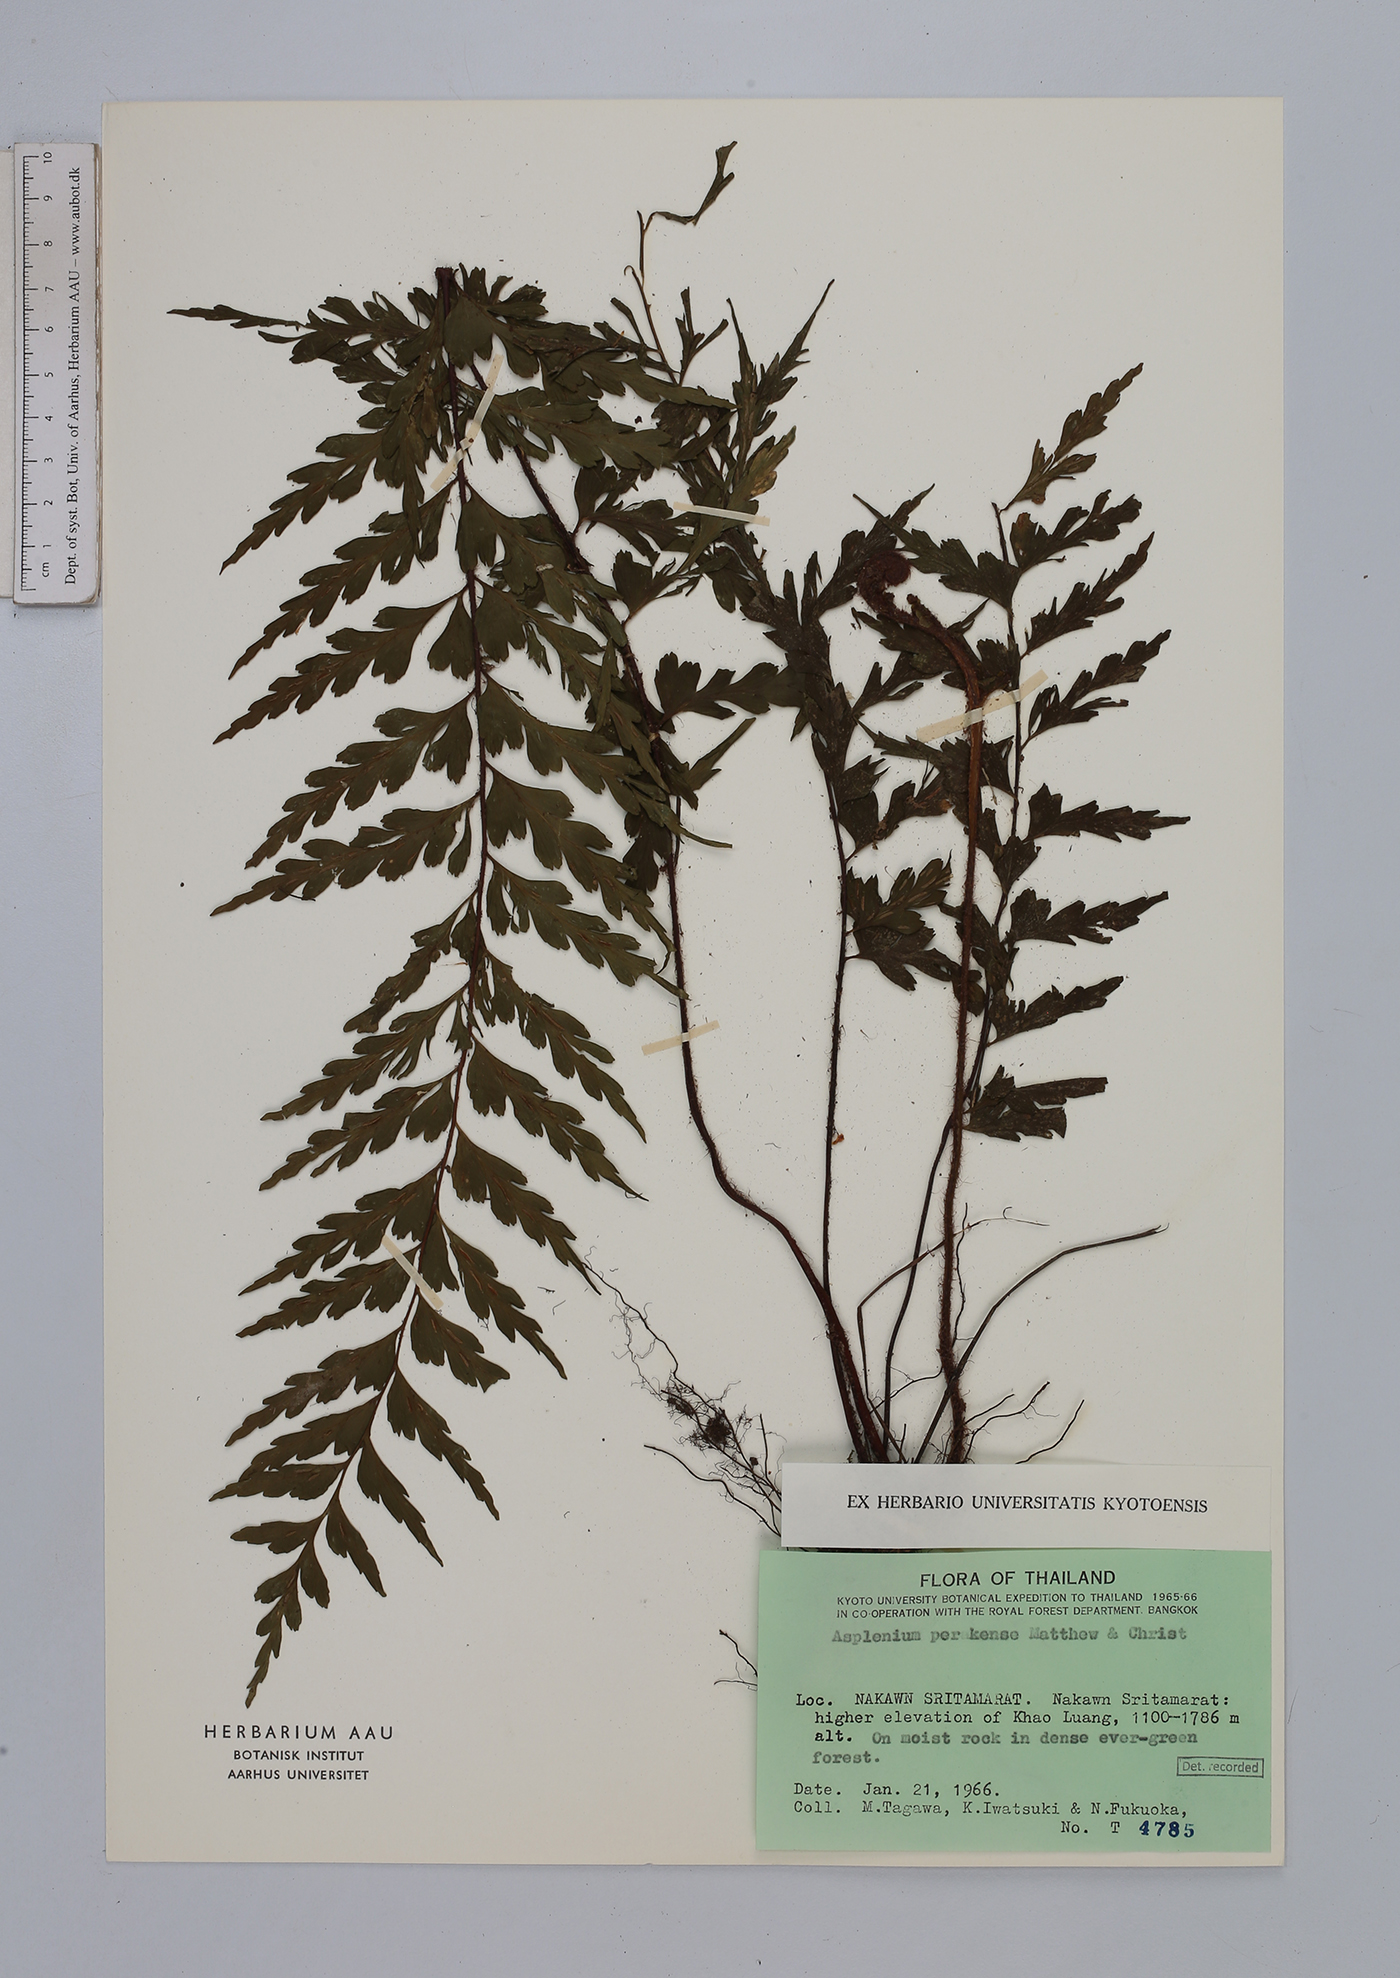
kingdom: Plantae
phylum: Tracheophyta
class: Polypodiopsida
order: Polypodiales
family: Aspleniaceae
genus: Asplenium
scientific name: Asplenium perakense
